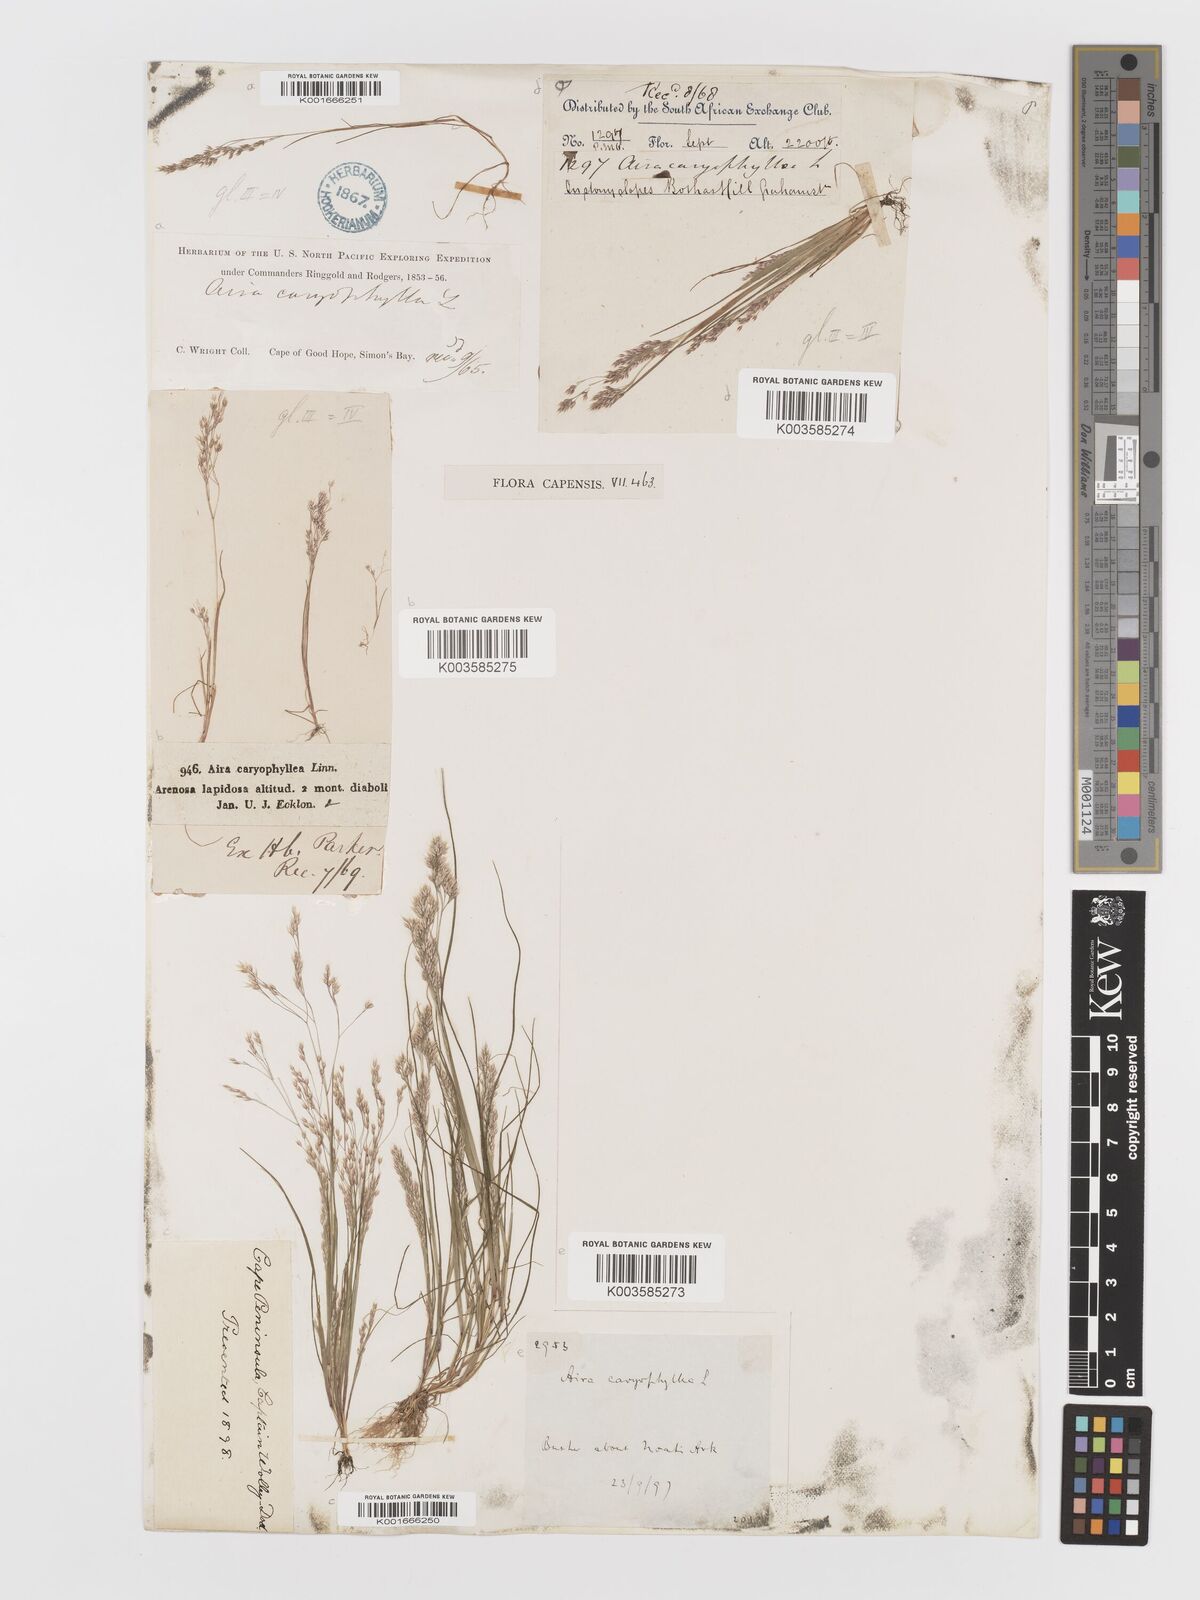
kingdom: Plantae
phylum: Tracheophyta
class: Liliopsida
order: Poales
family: Poaceae
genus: Aira
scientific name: Aira cupaniana
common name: Silver hairgrass
